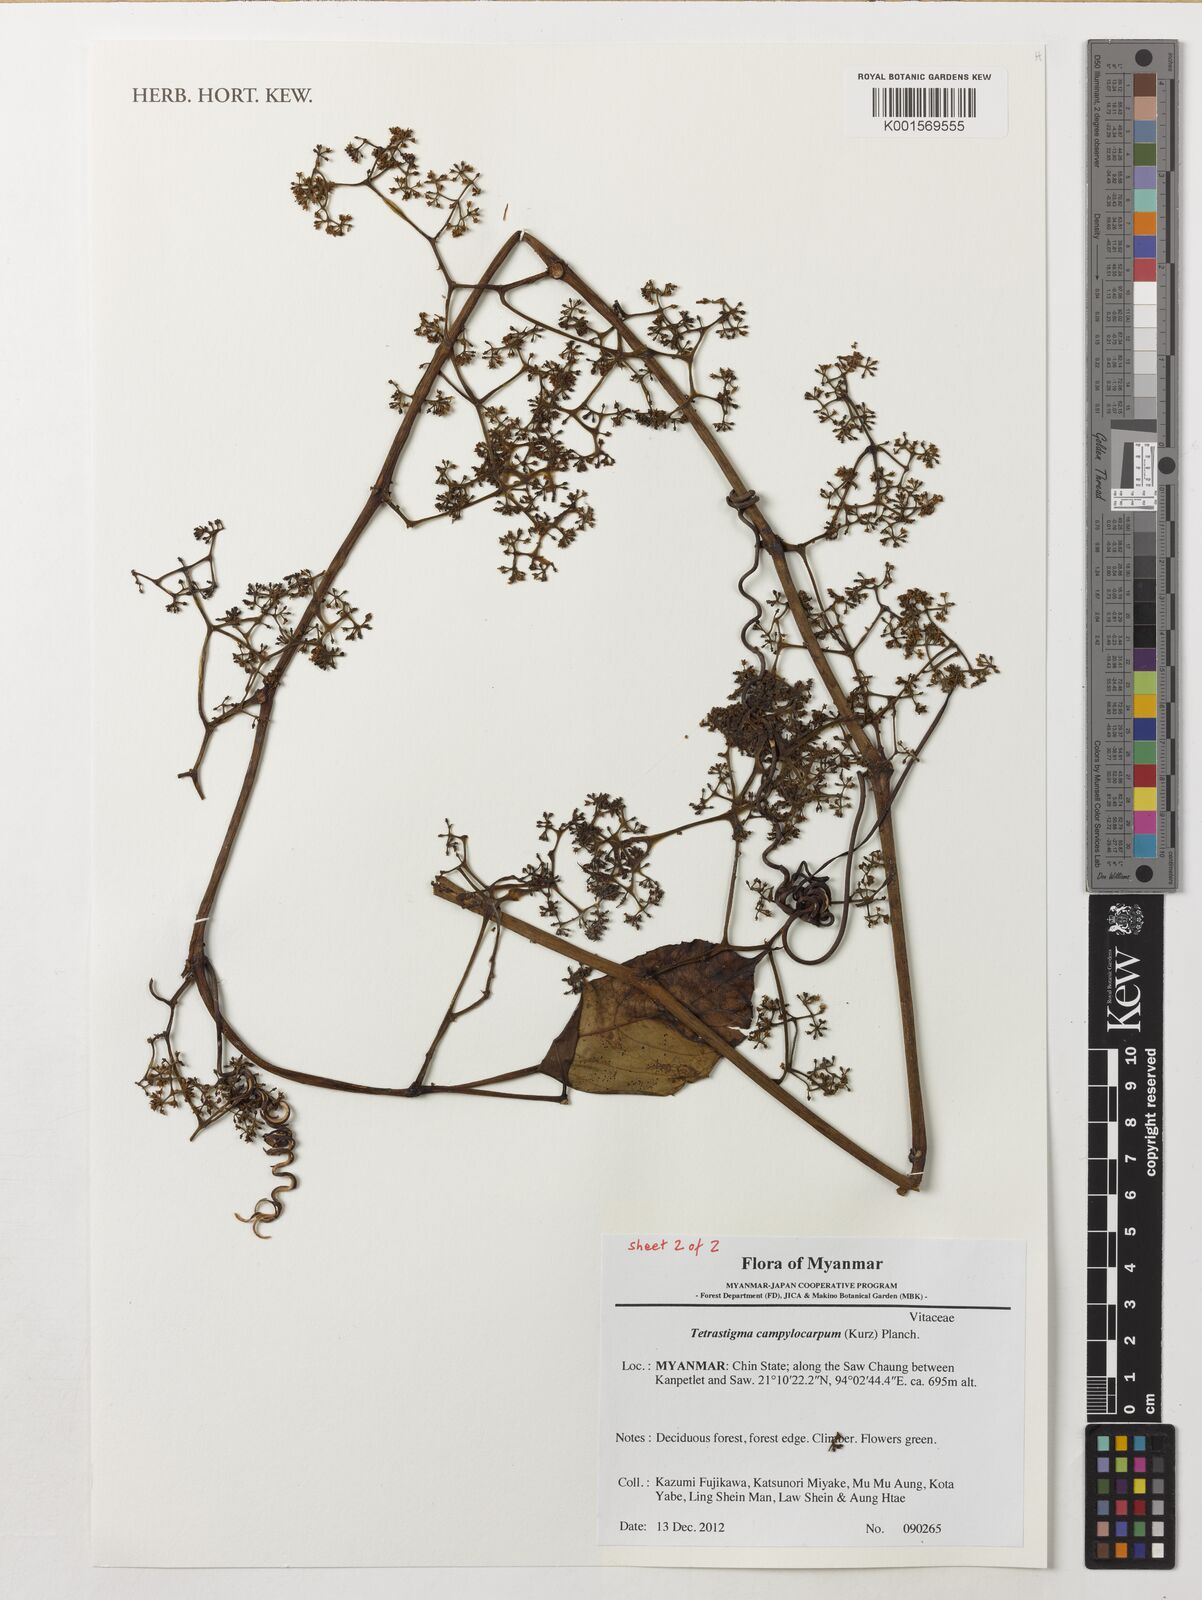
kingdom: Plantae
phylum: Tracheophyta
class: Magnoliopsida
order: Vitales
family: Vitaceae
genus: Tetrastigma
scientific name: Tetrastigma campylocarpum
